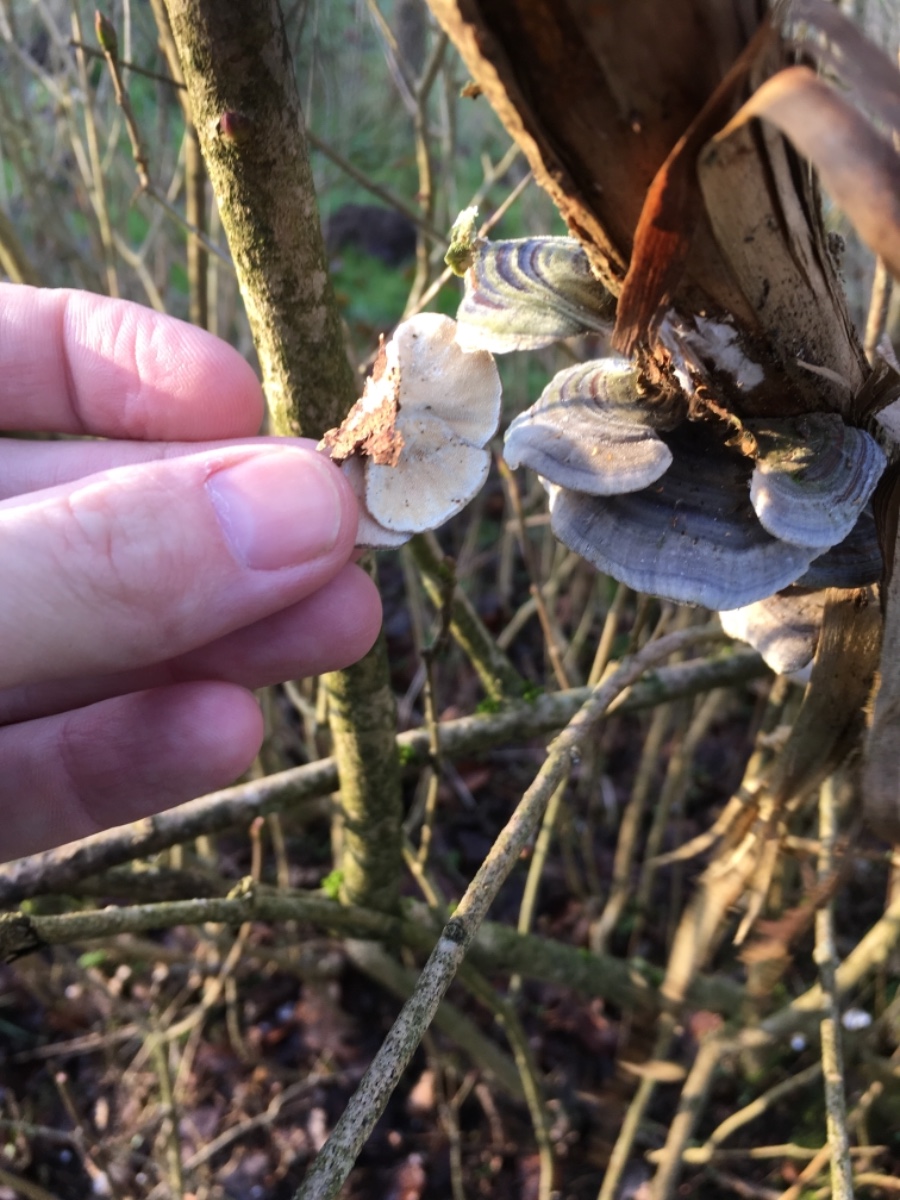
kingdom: Fungi
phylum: Basidiomycota
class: Agaricomycetes
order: Polyporales
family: Polyporaceae
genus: Trametes
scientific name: Trametes versicolor
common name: broget læderporesvamp
